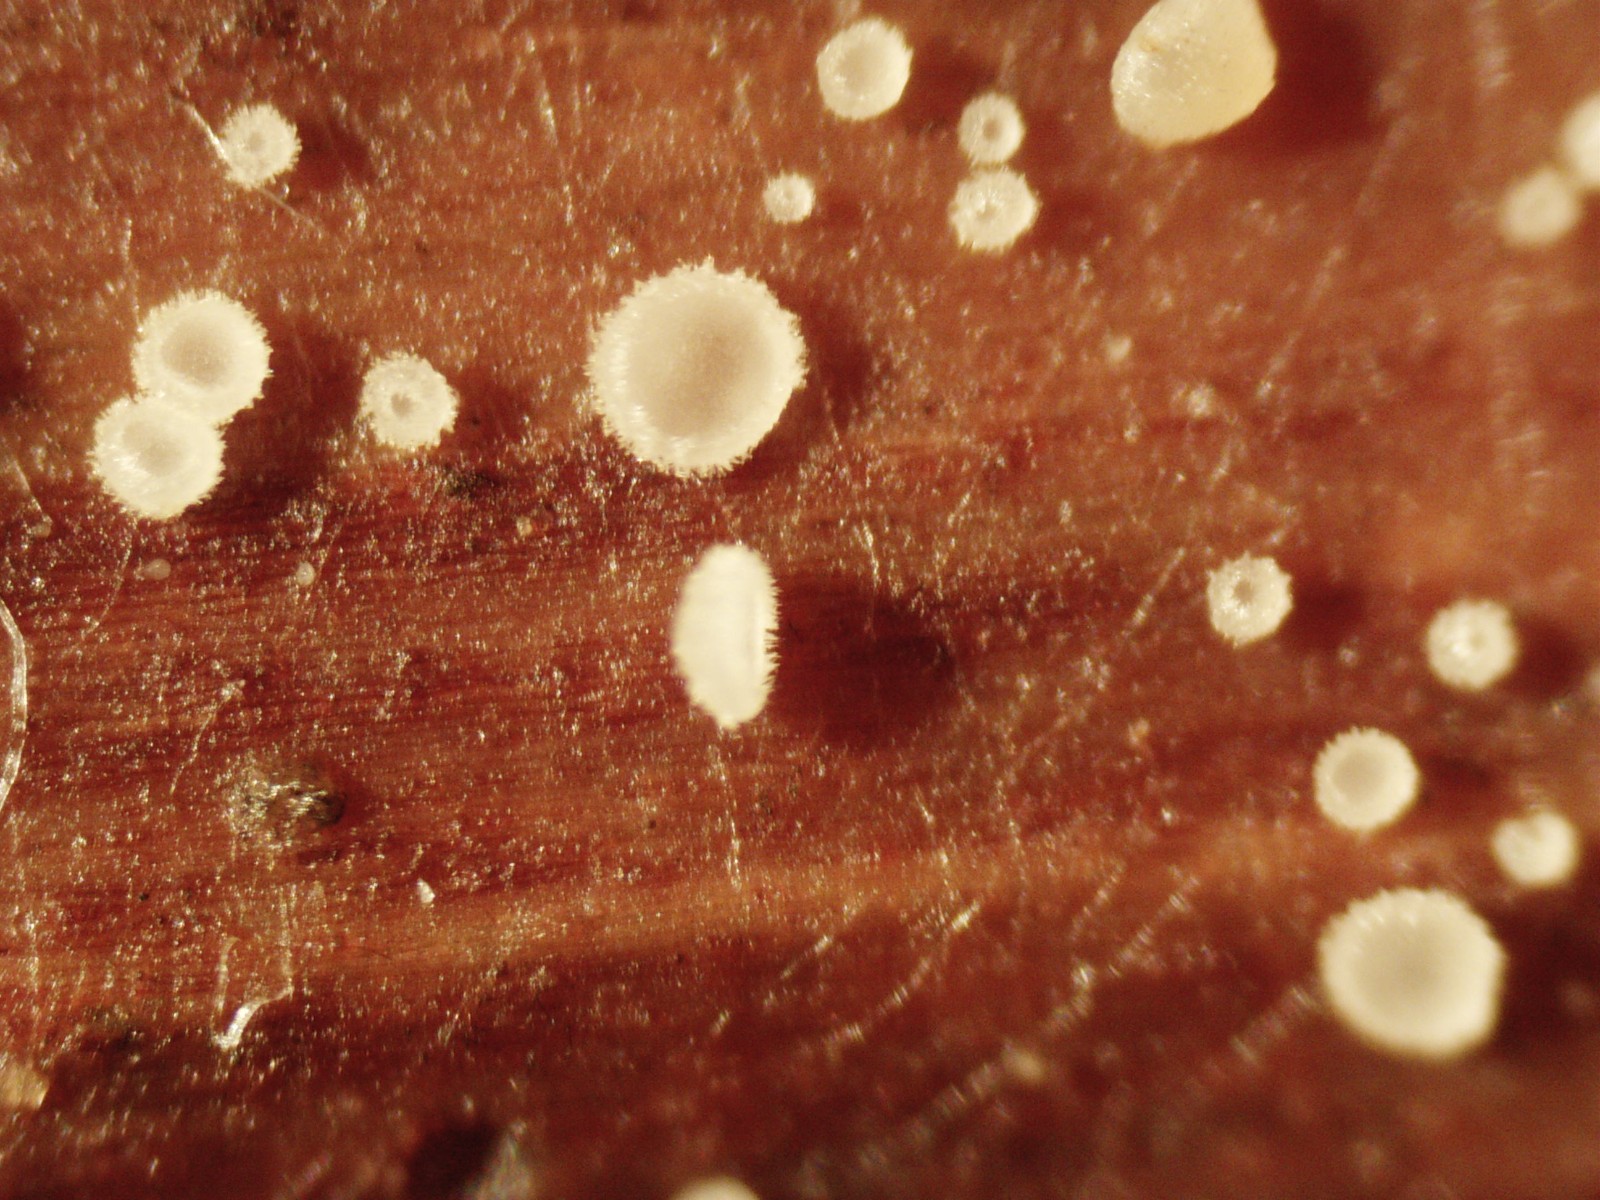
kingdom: Fungi
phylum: Ascomycota
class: Leotiomycetes
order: Helotiales
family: Hyaloscyphaceae
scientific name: Hyaloscyphaceae
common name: frynseskivefamilien
